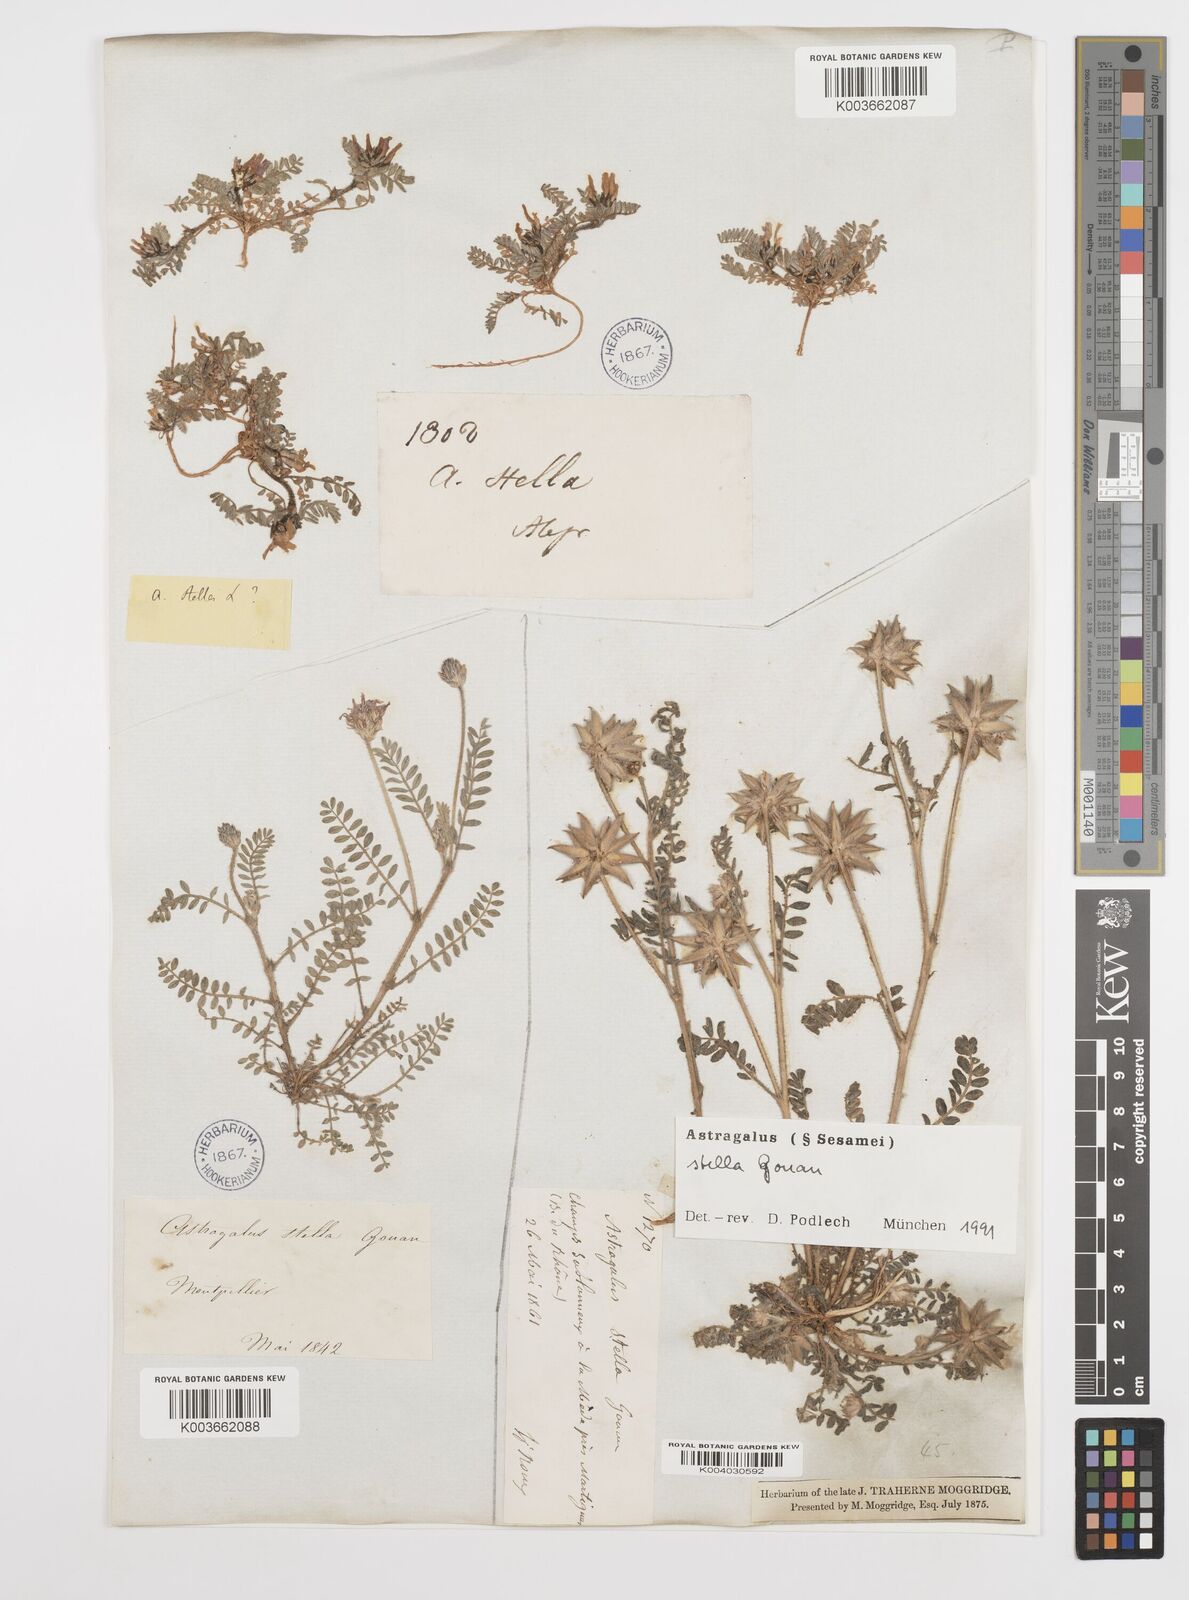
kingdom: Plantae
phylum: Tracheophyta
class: Magnoliopsida
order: Fabales
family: Fabaceae
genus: Astragalus
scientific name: Astragalus stella
